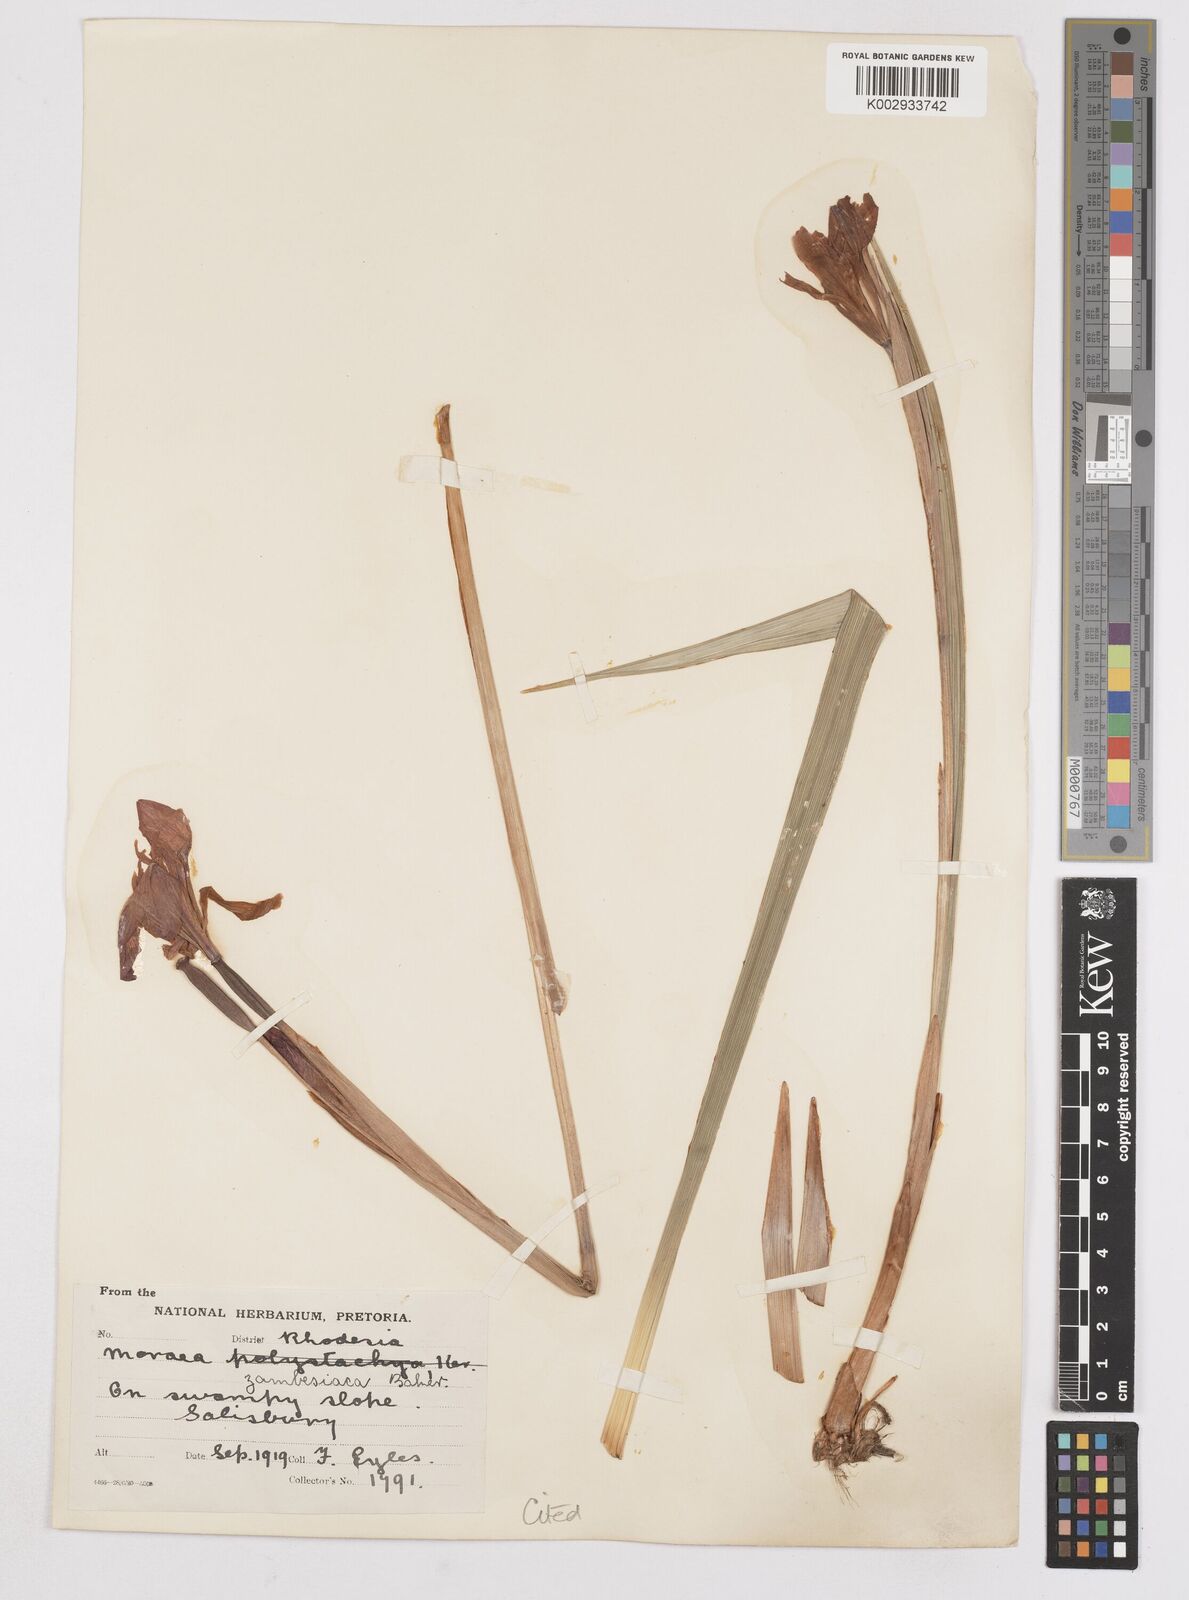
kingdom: Plantae
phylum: Tracheophyta
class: Liliopsida
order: Asparagales
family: Iridaceae
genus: Moraea
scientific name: Moraea schimperi
